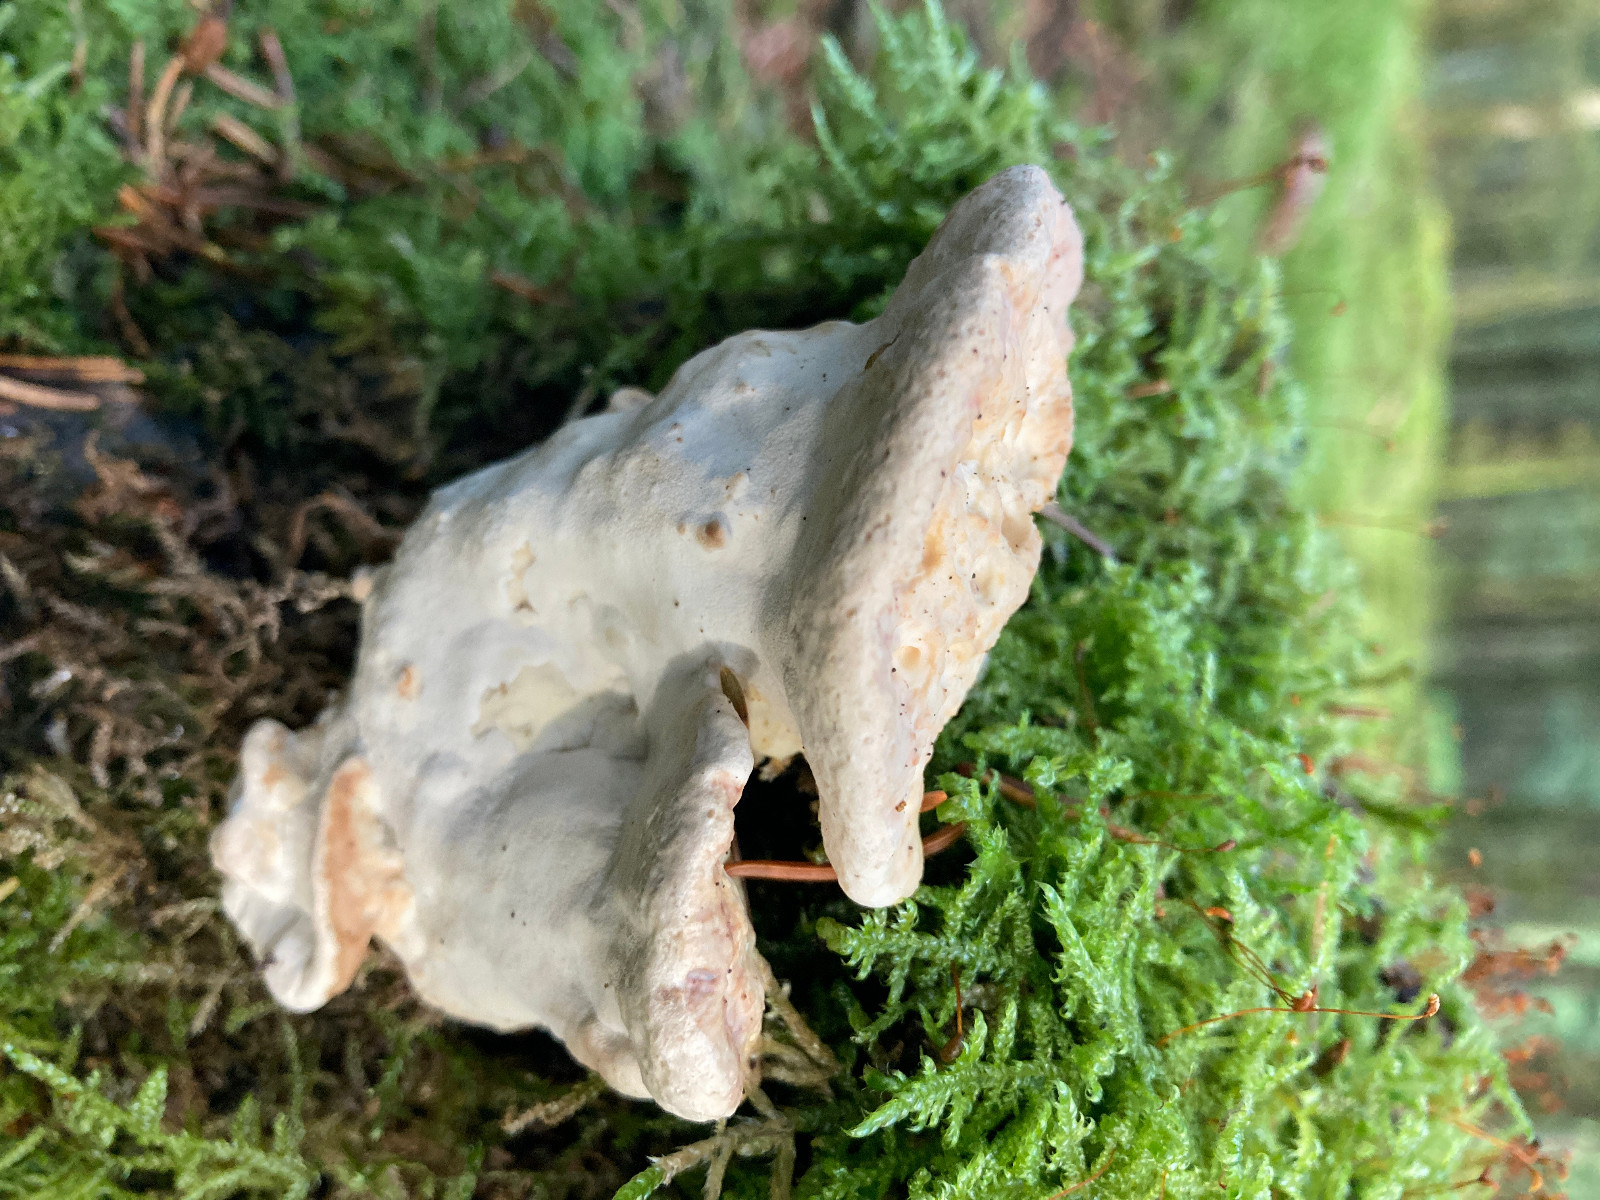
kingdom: Fungi
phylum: Basidiomycota
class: Agaricomycetes
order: Polyporales
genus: Calcipostia
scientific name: Calcipostia guttulata
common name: dråbe-kødporesvamp
